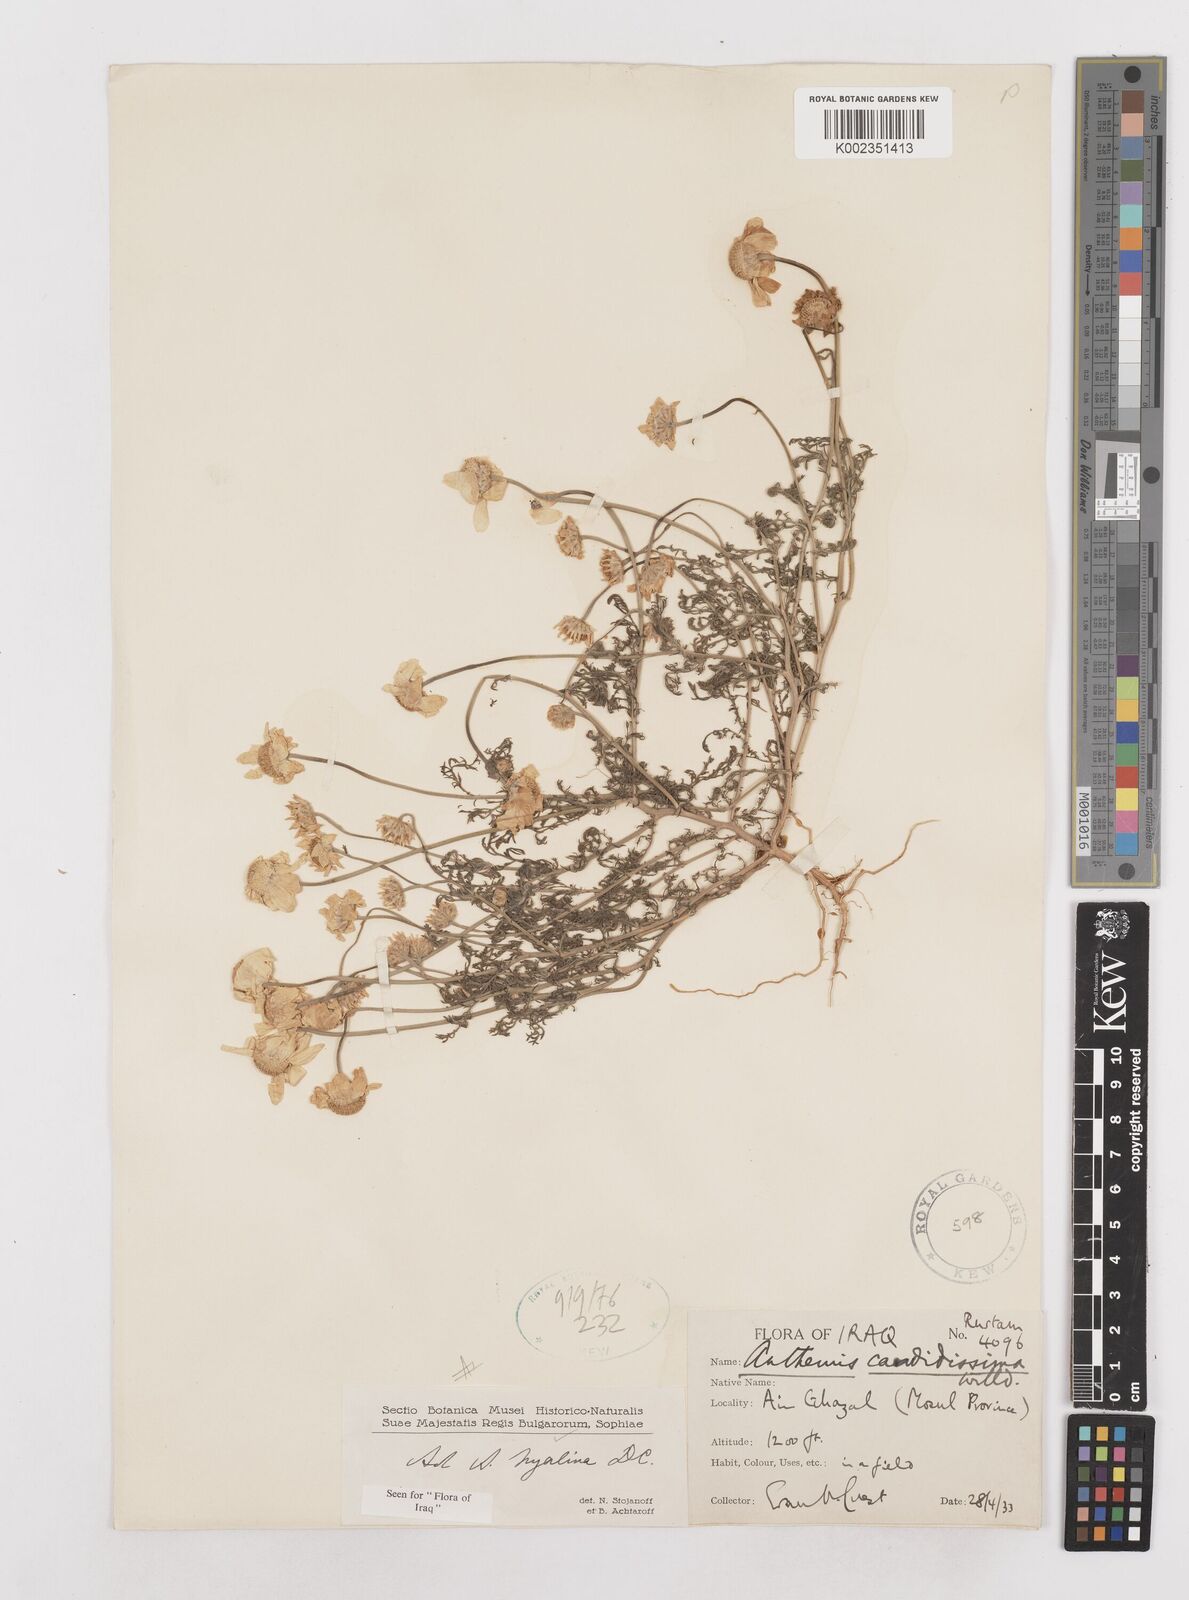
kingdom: Plantae
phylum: Tracheophyta
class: Magnoliopsida
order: Asterales
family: Asteraceae
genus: Anthemis
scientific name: Anthemis hyalina
